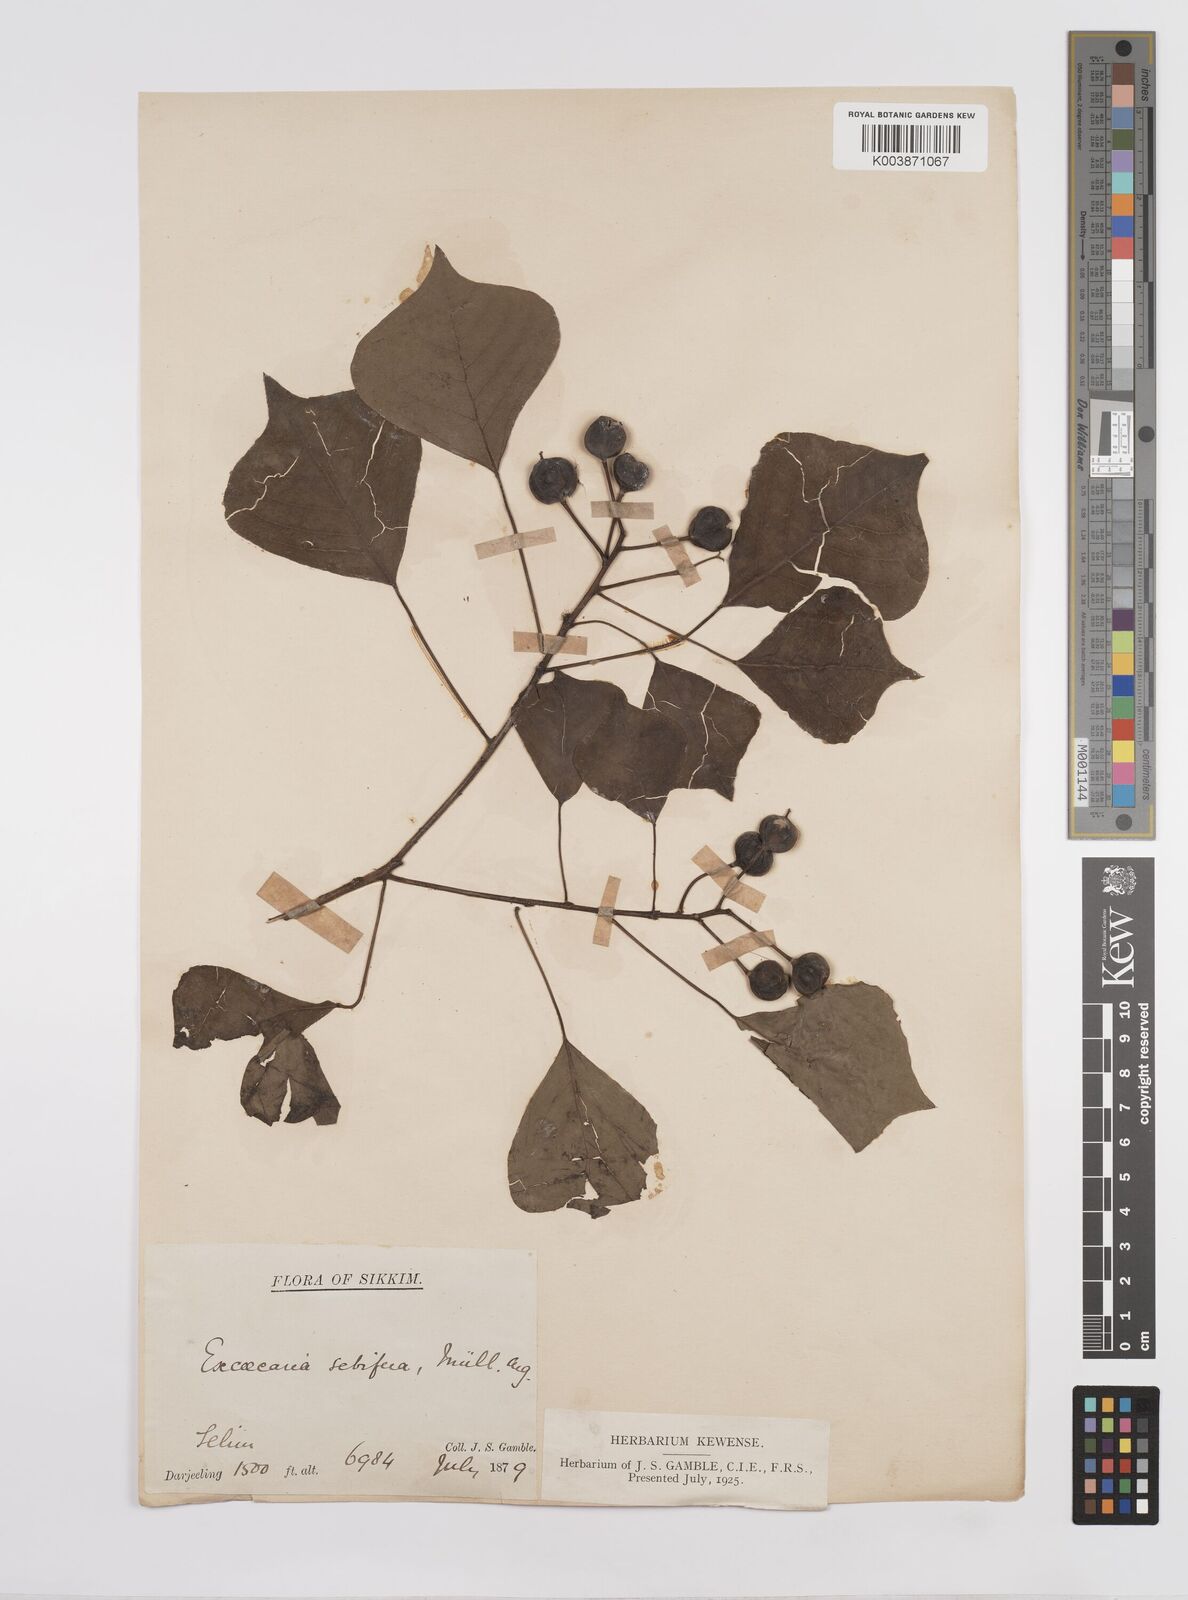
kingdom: Plantae
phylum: Tracheophyta
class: Magnoliopsida
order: Malpighiales
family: Euphorbiaceae
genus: Triadica
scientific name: Triadica sebifera
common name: Chinese tallow
